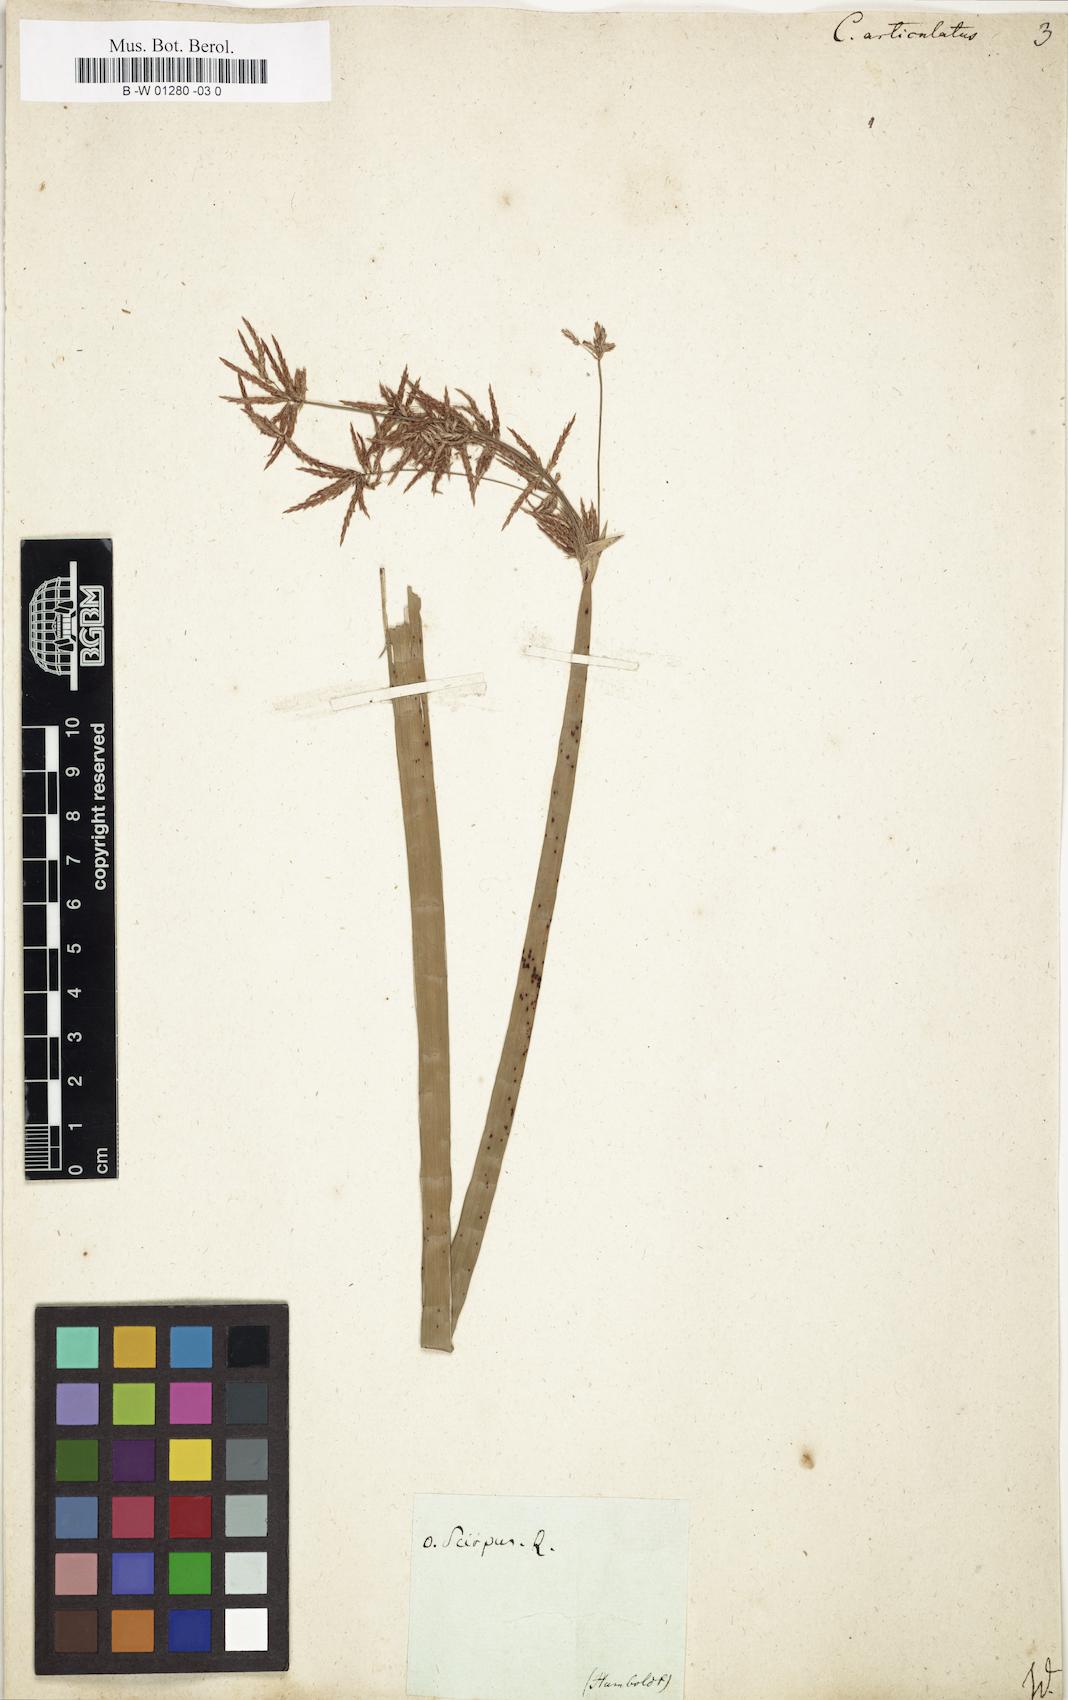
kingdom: Plantae
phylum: Tracheophyta
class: Liliopsida
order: Poales
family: Cyperaceae
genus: Cyperus
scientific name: Cyperus articulatus
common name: Jointed flatsedge
